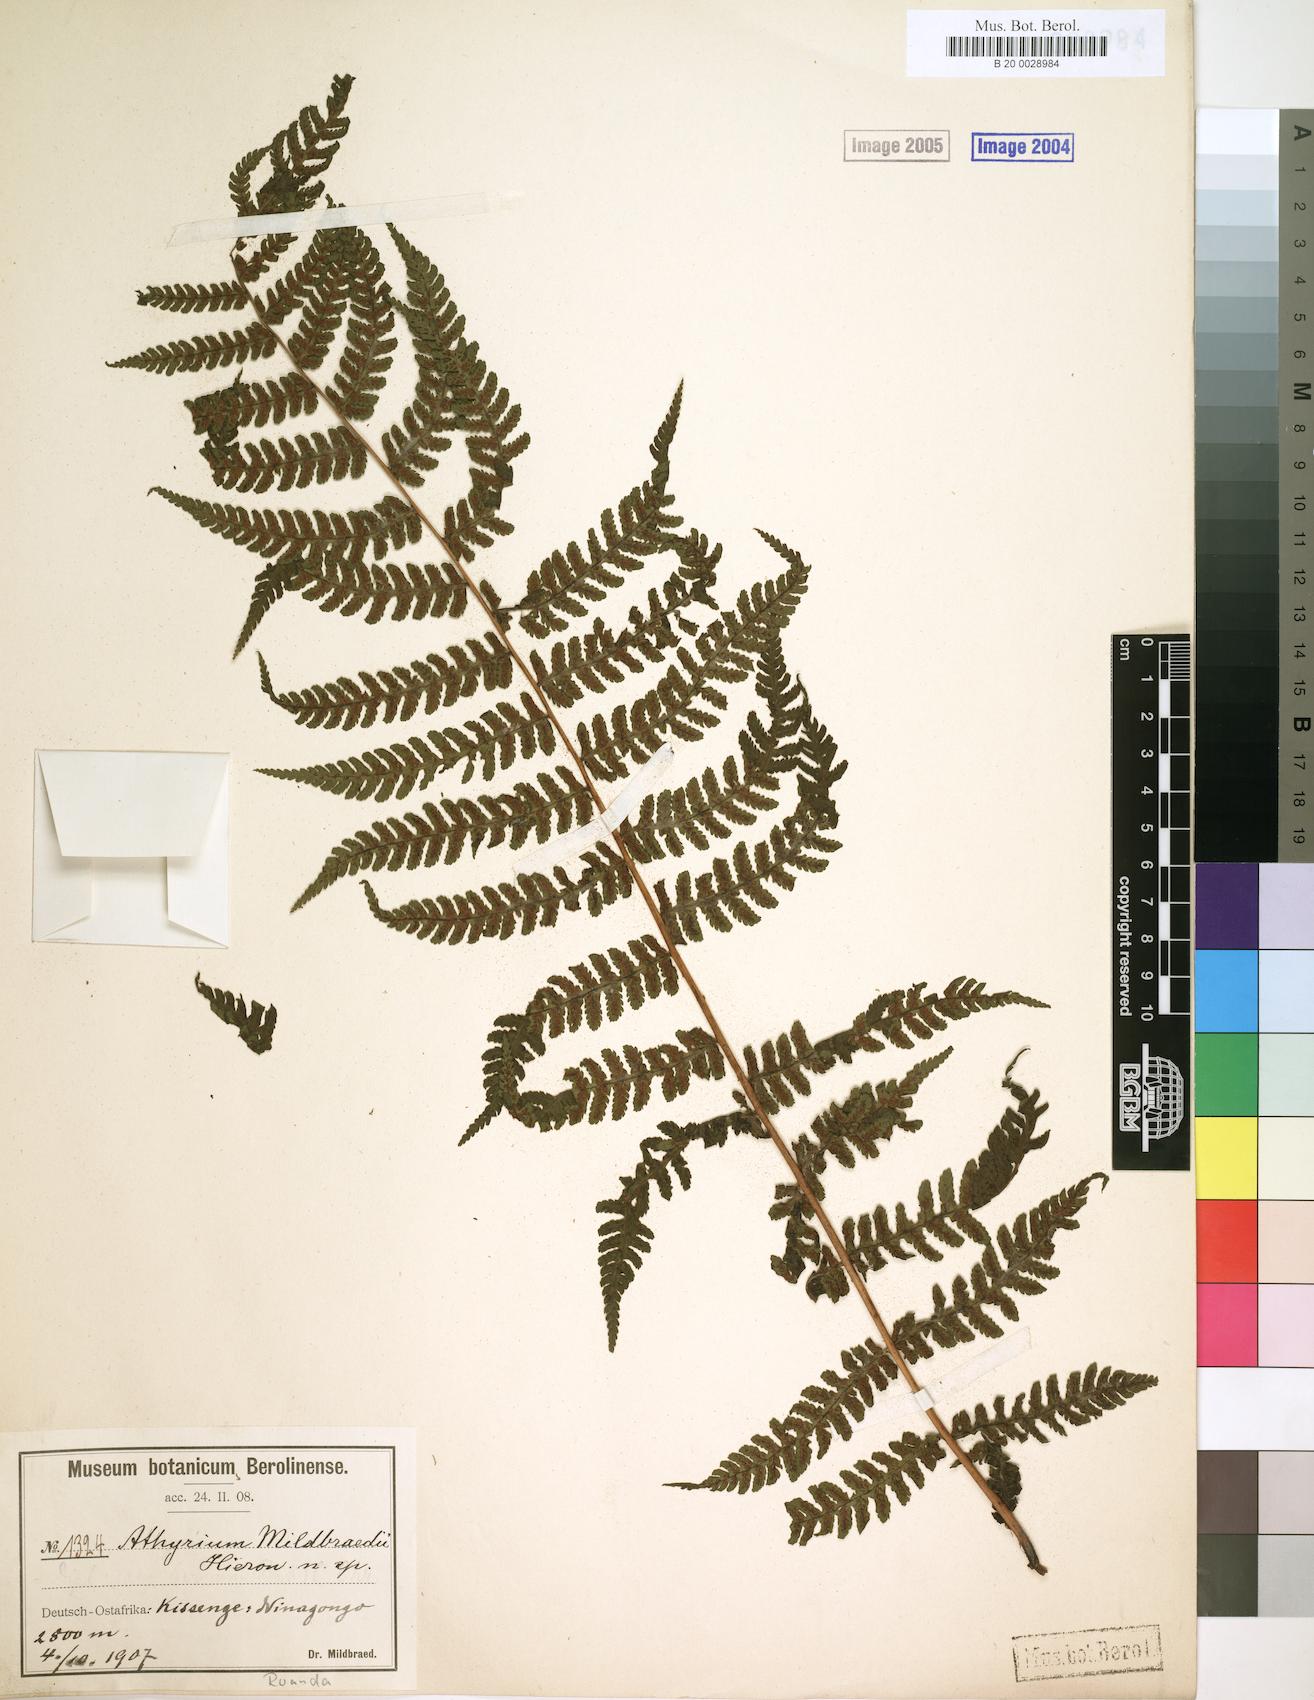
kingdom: Plantae
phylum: Tracheophyta
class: Polypodiopsida
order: Polypodiales
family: Athyriaceae
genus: Athyrium
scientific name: Athyrium
